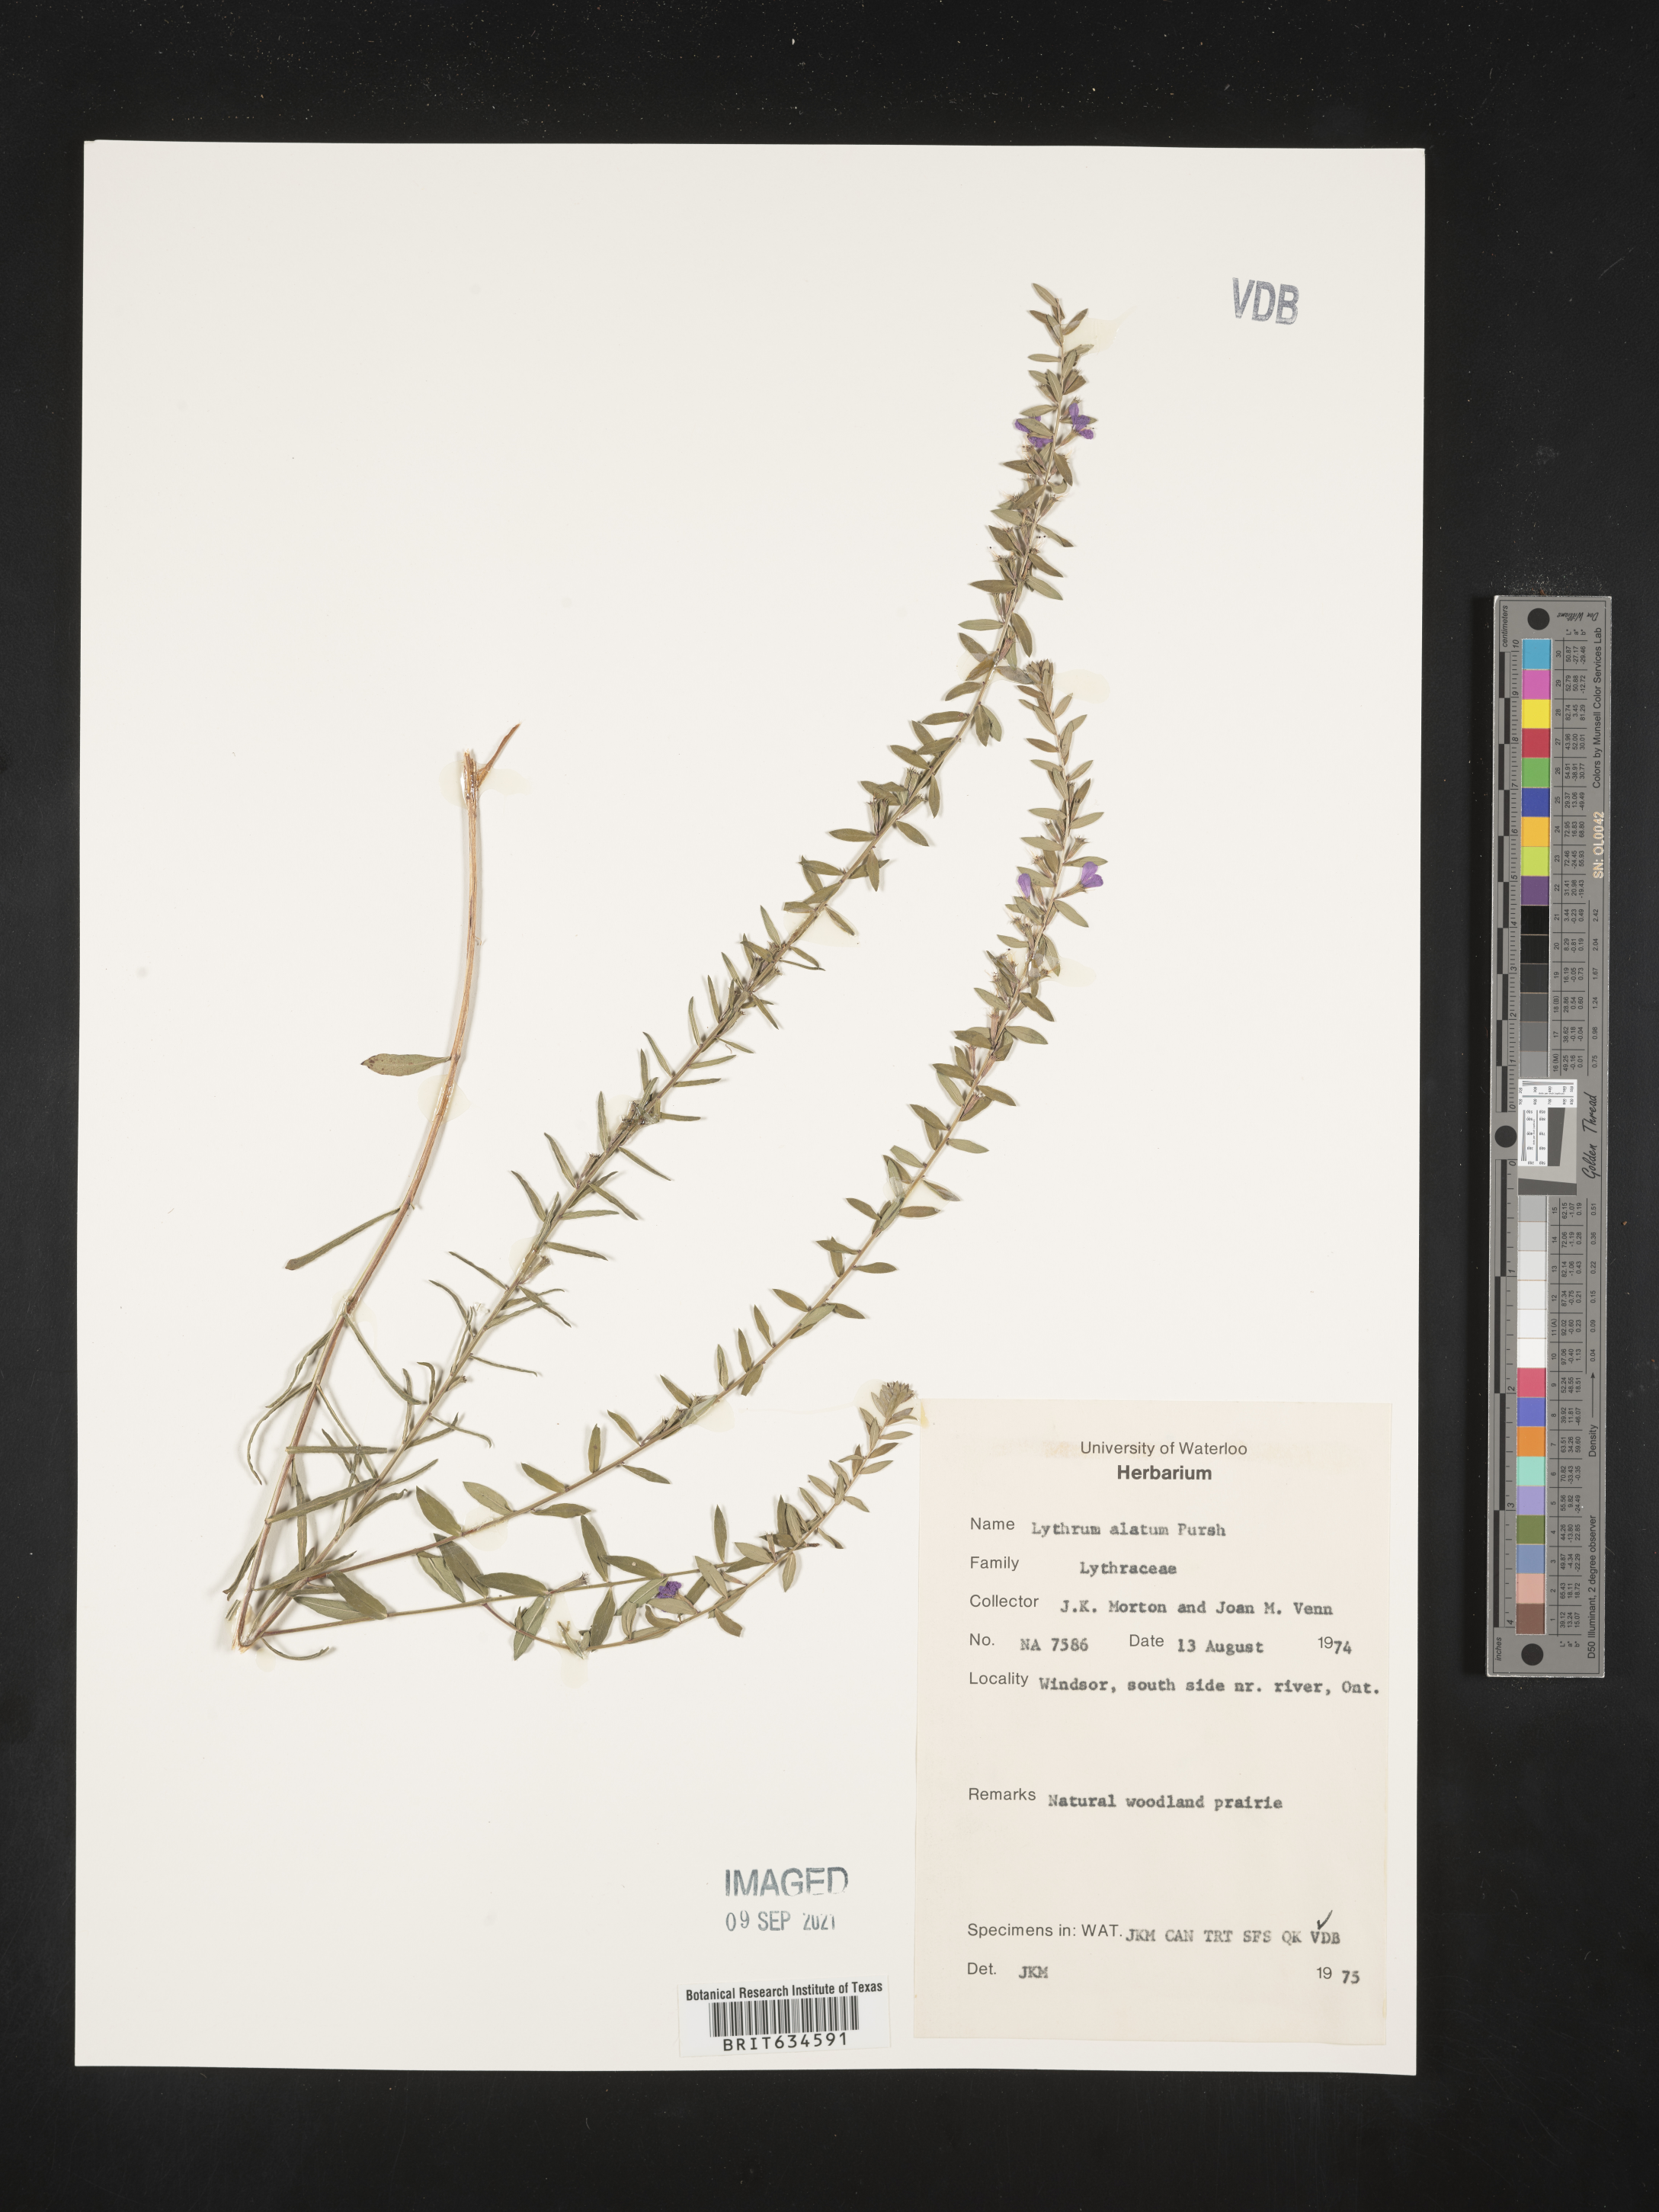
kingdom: Plantae
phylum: Tracheophyta
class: Magnoliopsida
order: Myrtales
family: Lythraceae
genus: Lythrum
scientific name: Lythrum
